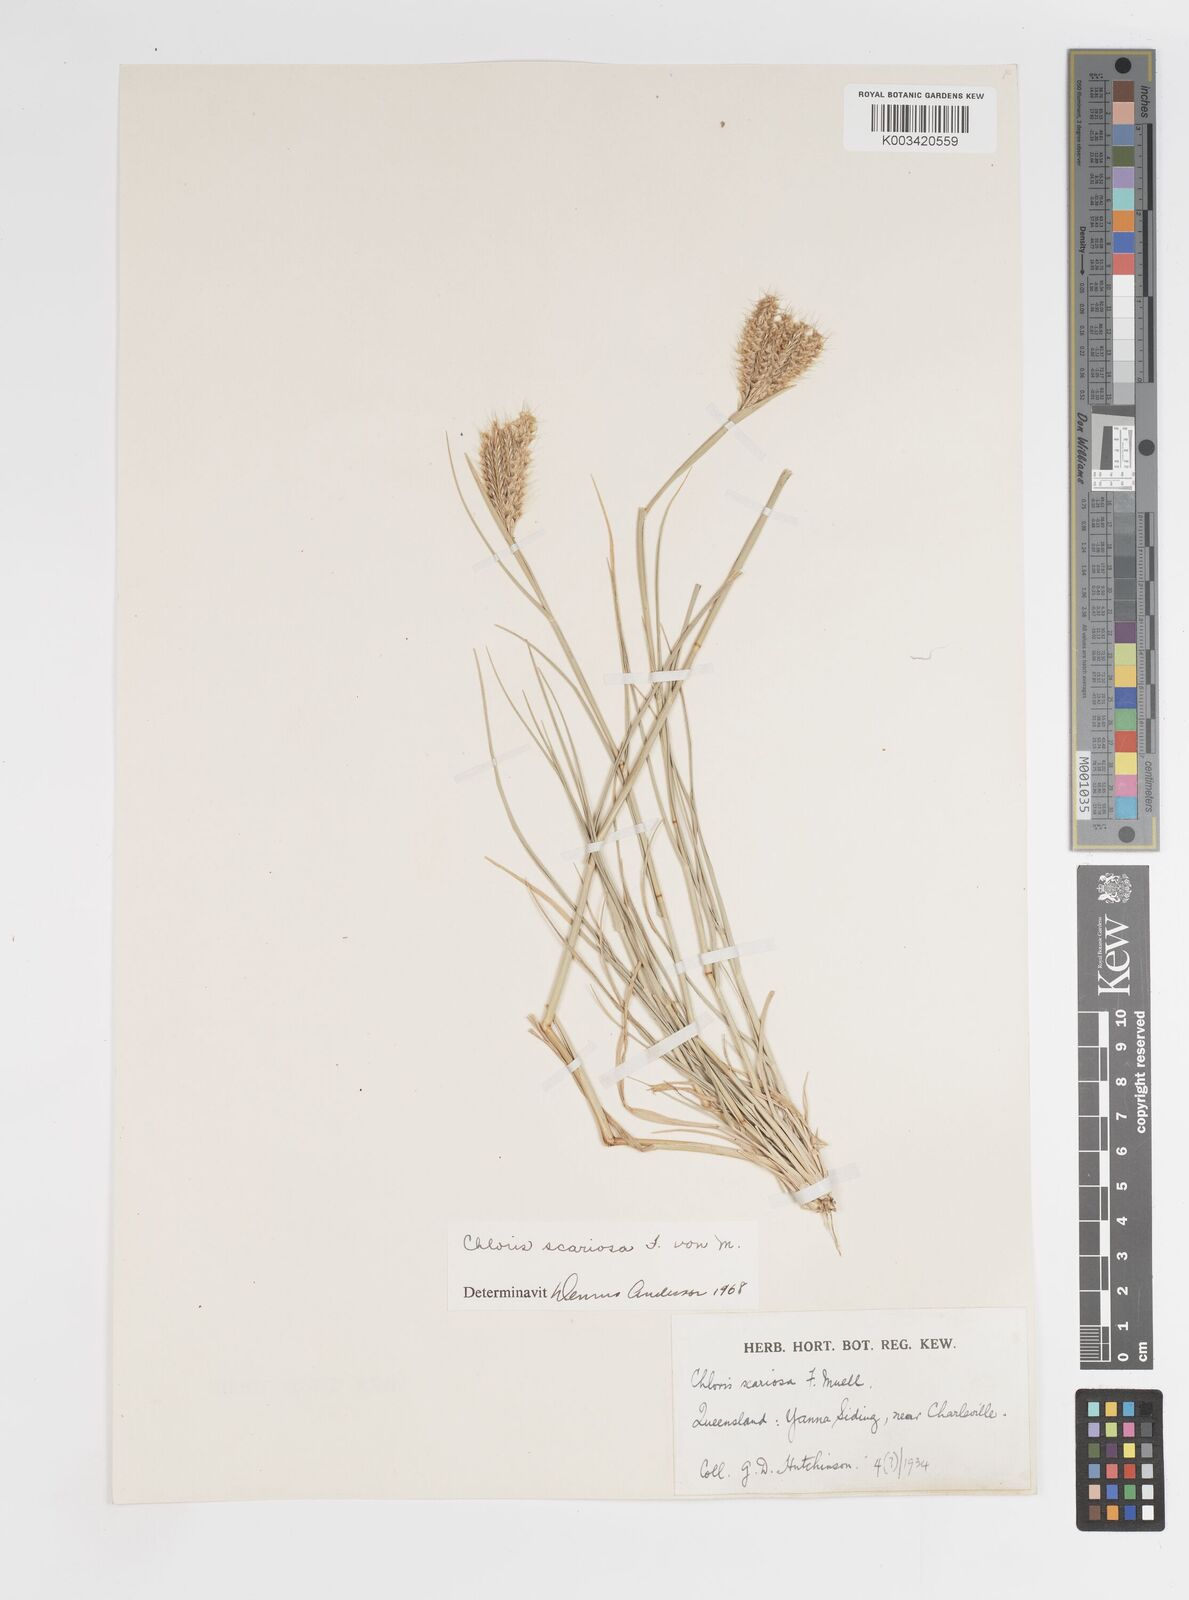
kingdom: Plantae
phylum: Tracheophyta
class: Liliopsida
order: Poales
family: Poaceae
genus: Oxychloris
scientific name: Oxychloris scariosa
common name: Winged windmill grass
